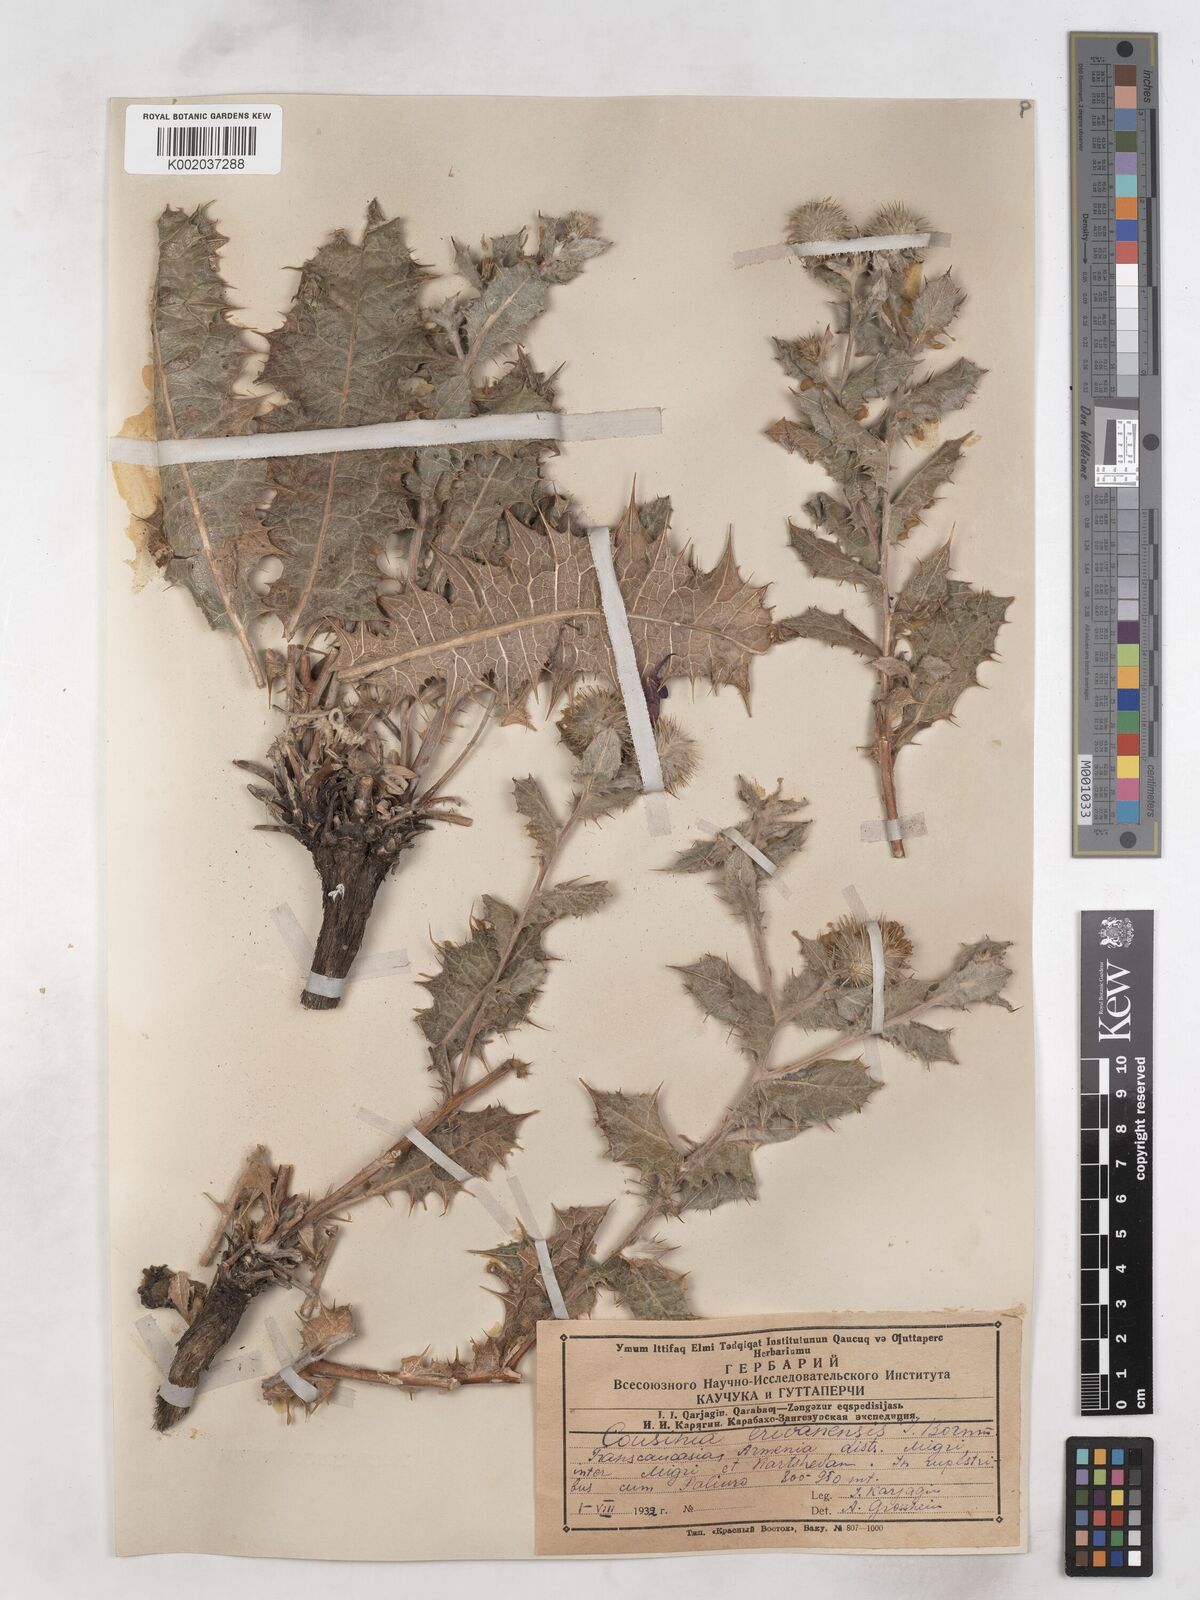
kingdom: Plantae
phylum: Tracheophyta
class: Magnoliopsida
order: Asterales
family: Asteraceae
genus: Cousinia
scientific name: Cousinia erivanensis
